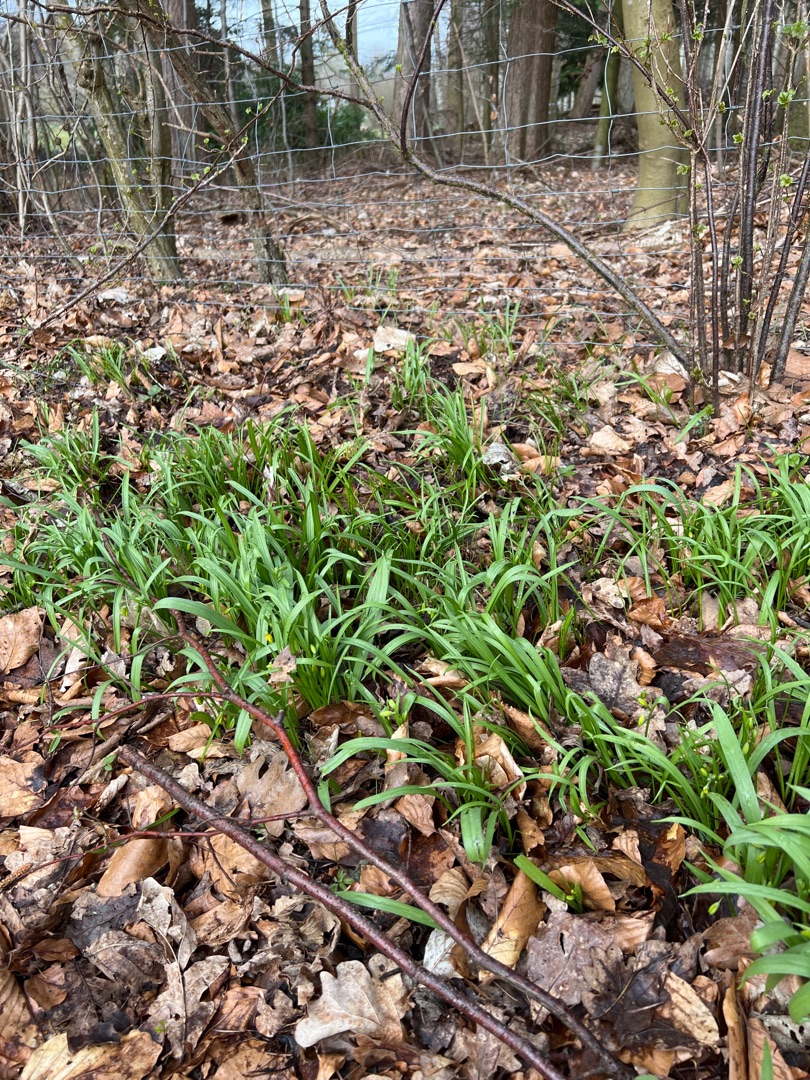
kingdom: Plantae
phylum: Tracheophyta
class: Liliopsida
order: Liliales
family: Liliaceae
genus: Gagea
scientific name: Gagea lutea
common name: Almindelig guldstjerne
